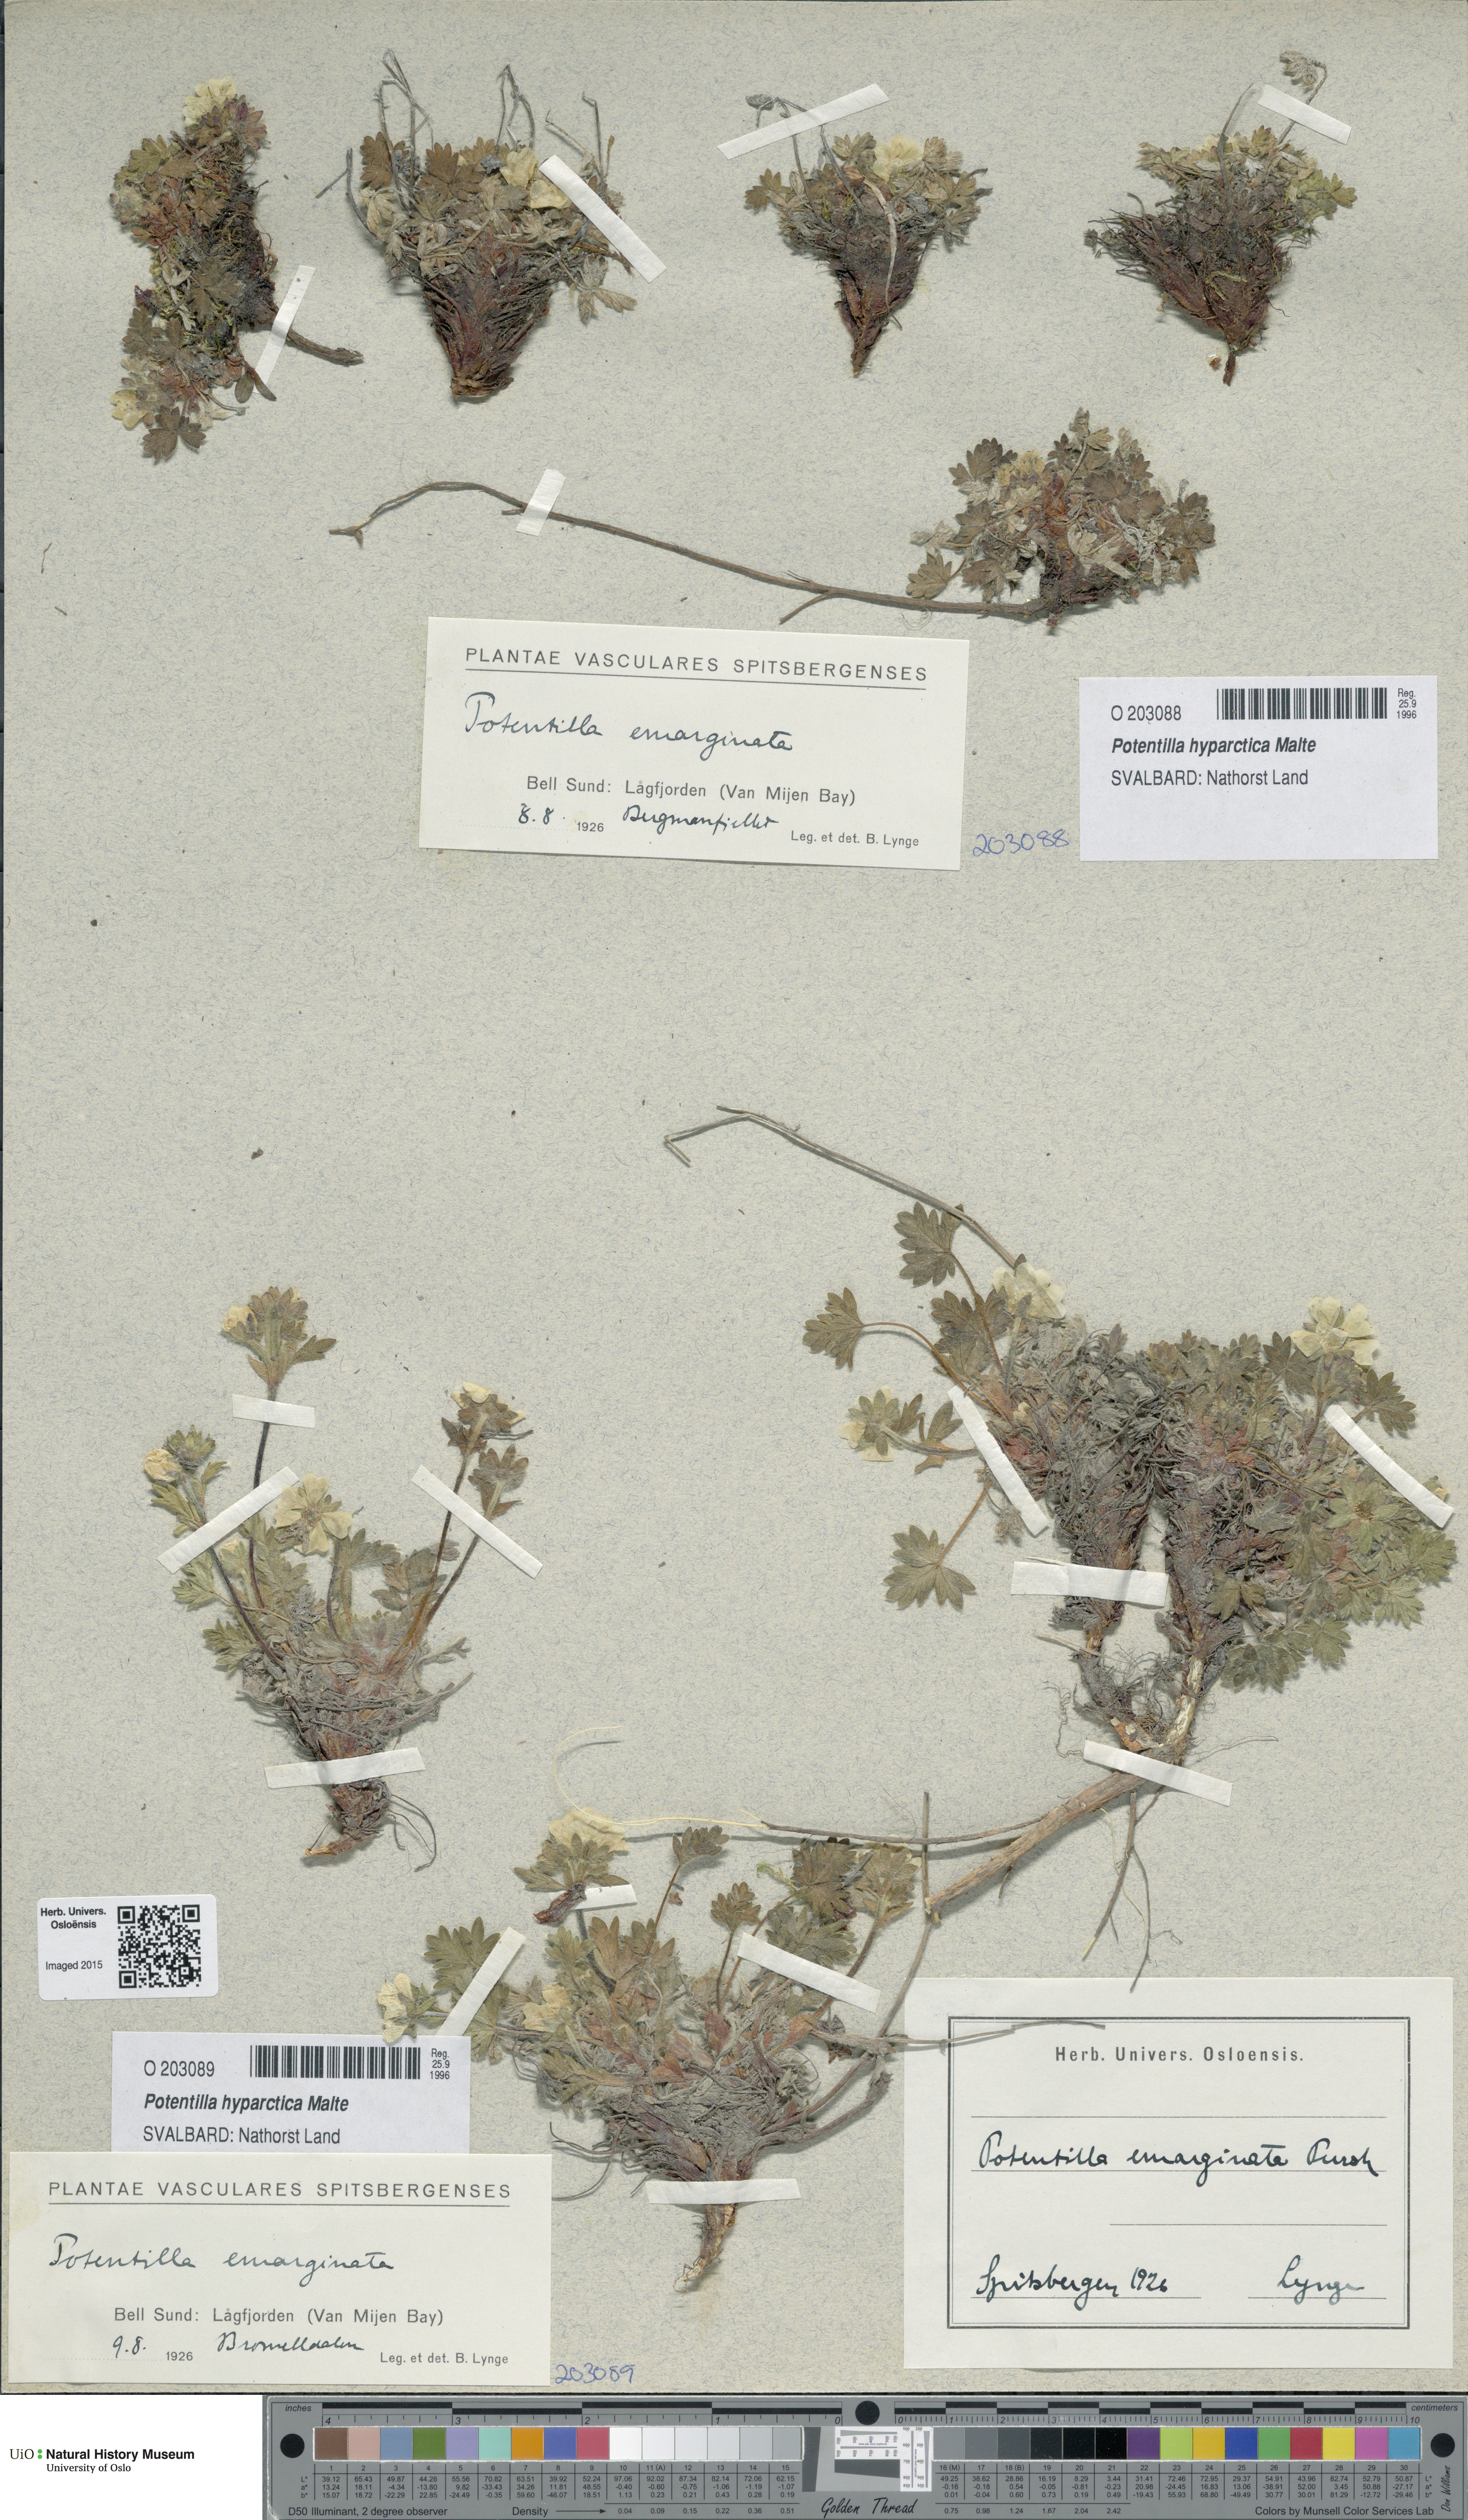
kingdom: Plantae
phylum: Tracheophyta
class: Magnoliopsida
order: Rosales
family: Rosaceae
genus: Potentilla
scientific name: Potentilla hyparctica
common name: Arctic cinquefoil
